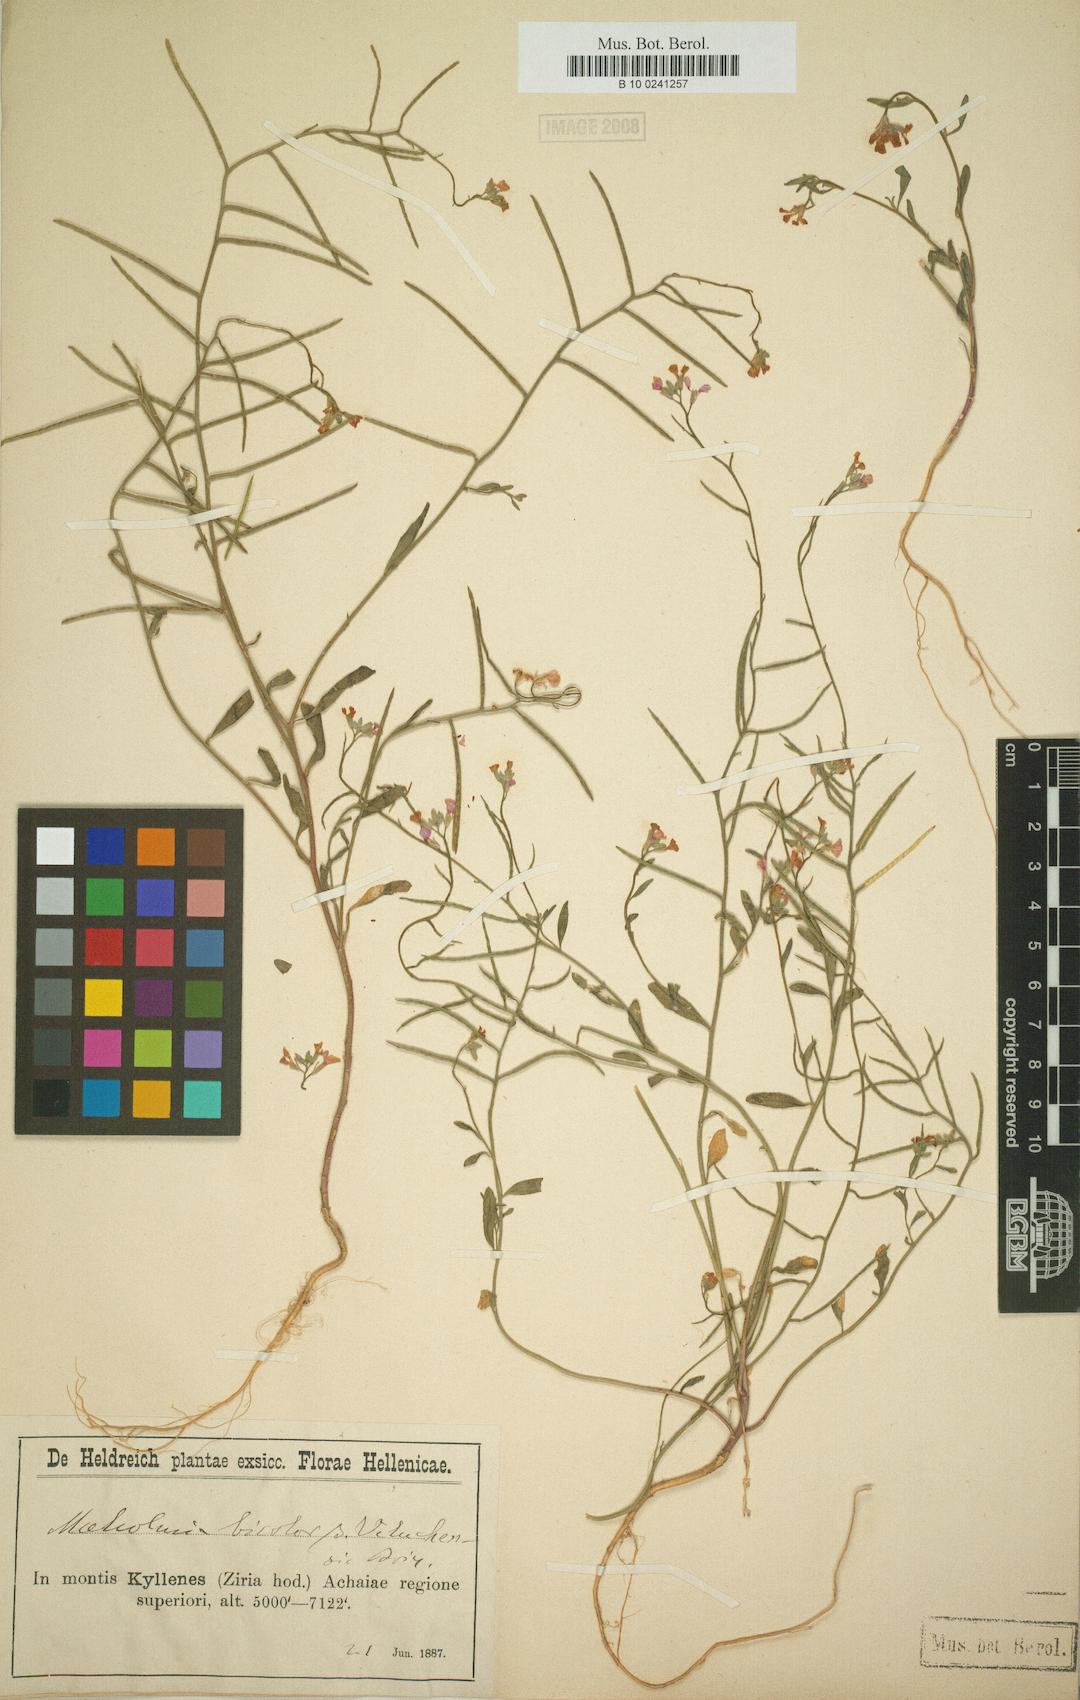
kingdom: Plantae
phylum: Tracheophyta
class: Magnoliopsida
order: Brassicales
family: Brassicaceae
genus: Malcolmia
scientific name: Malcolmia graeca
